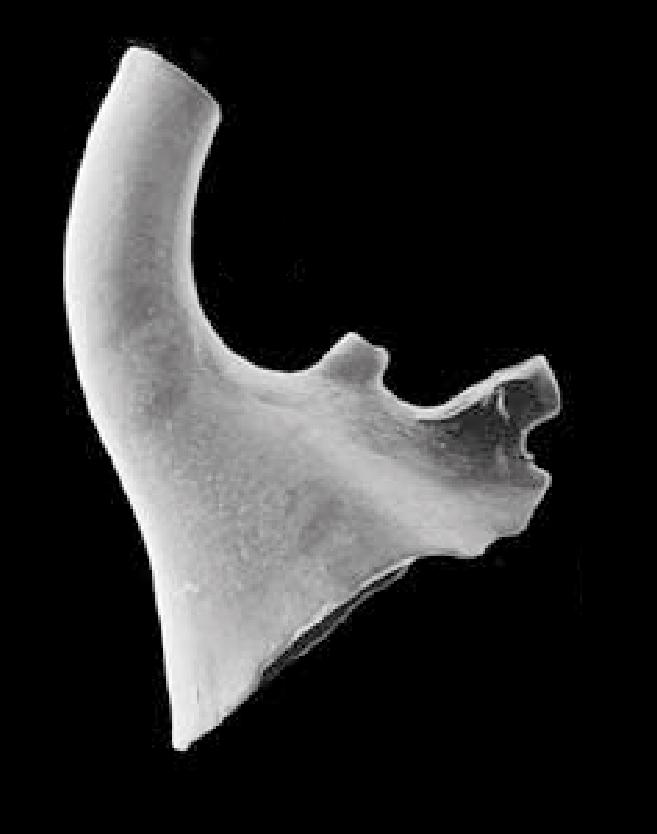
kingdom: Animalia
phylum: Chordata
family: Cordylodontidae
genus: Cordylodus
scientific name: Cordylodus angulatus
